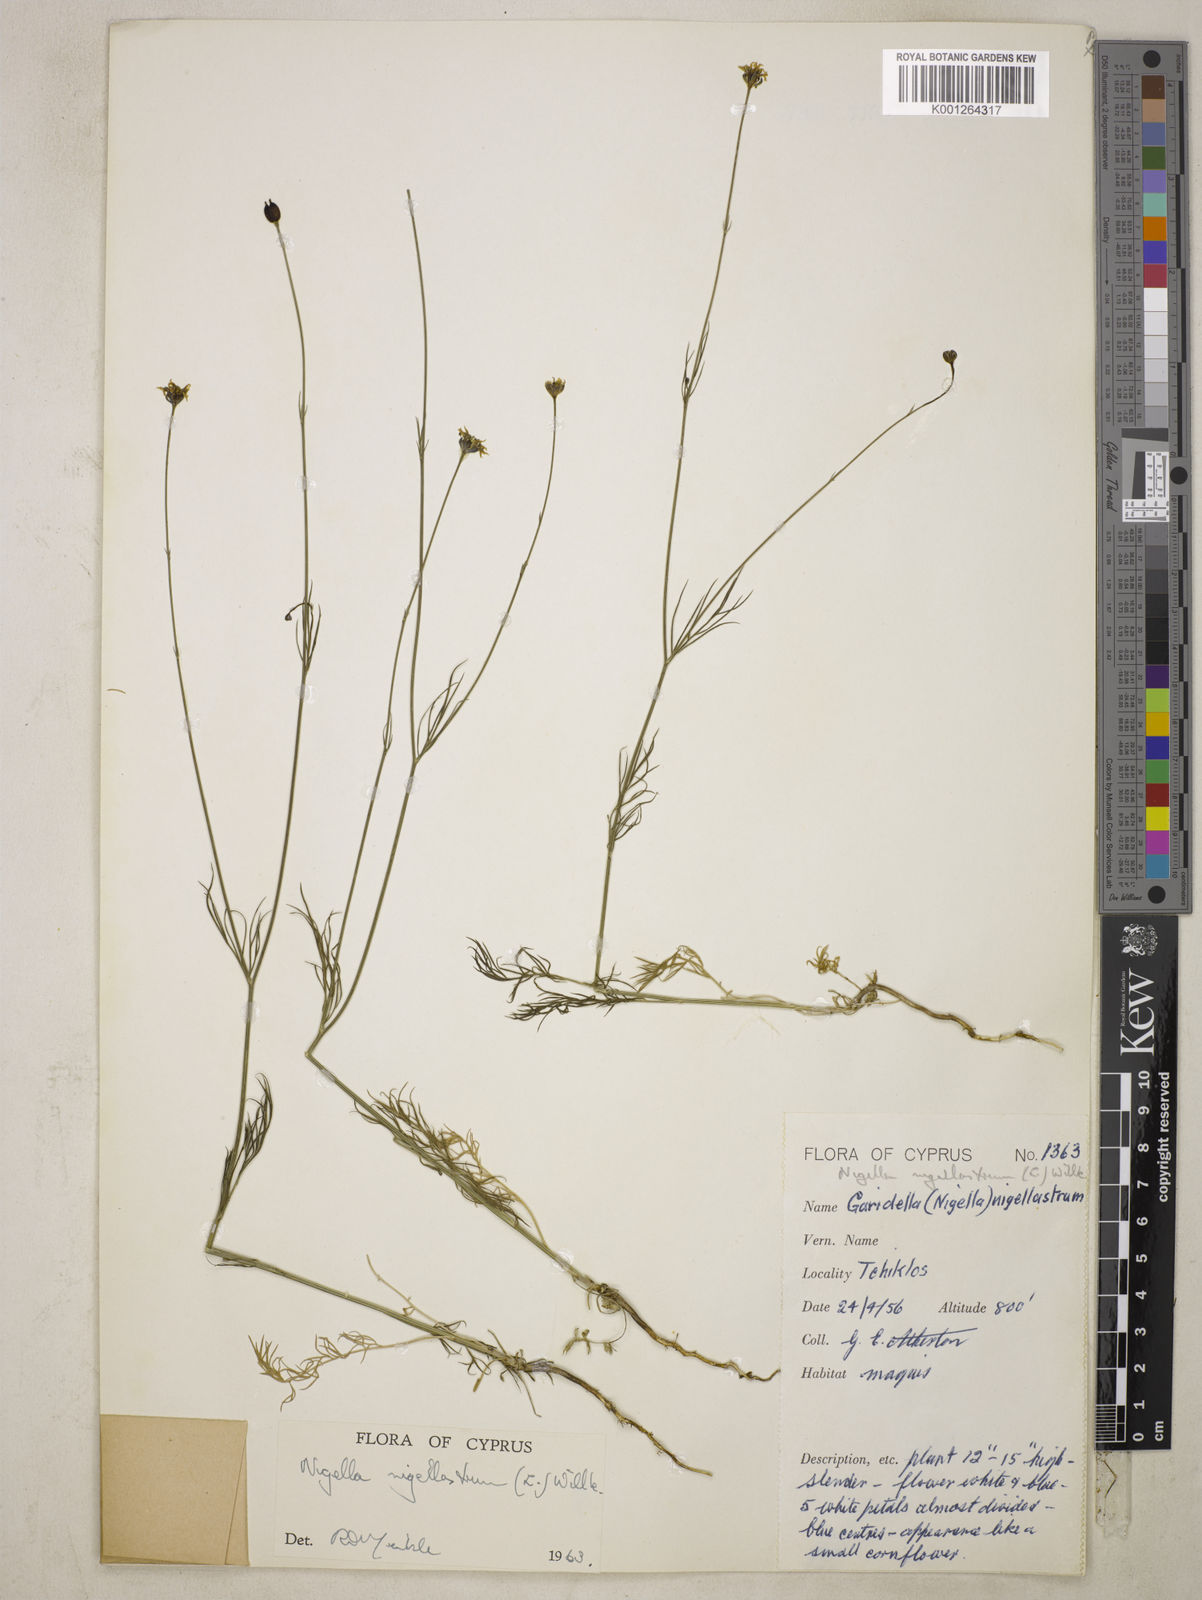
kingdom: Plantae
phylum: Tracheophyta
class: Magnoliopsida
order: Ranunculales
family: Ranunculaceae
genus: Garidella
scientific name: Garidella nigellastrum
